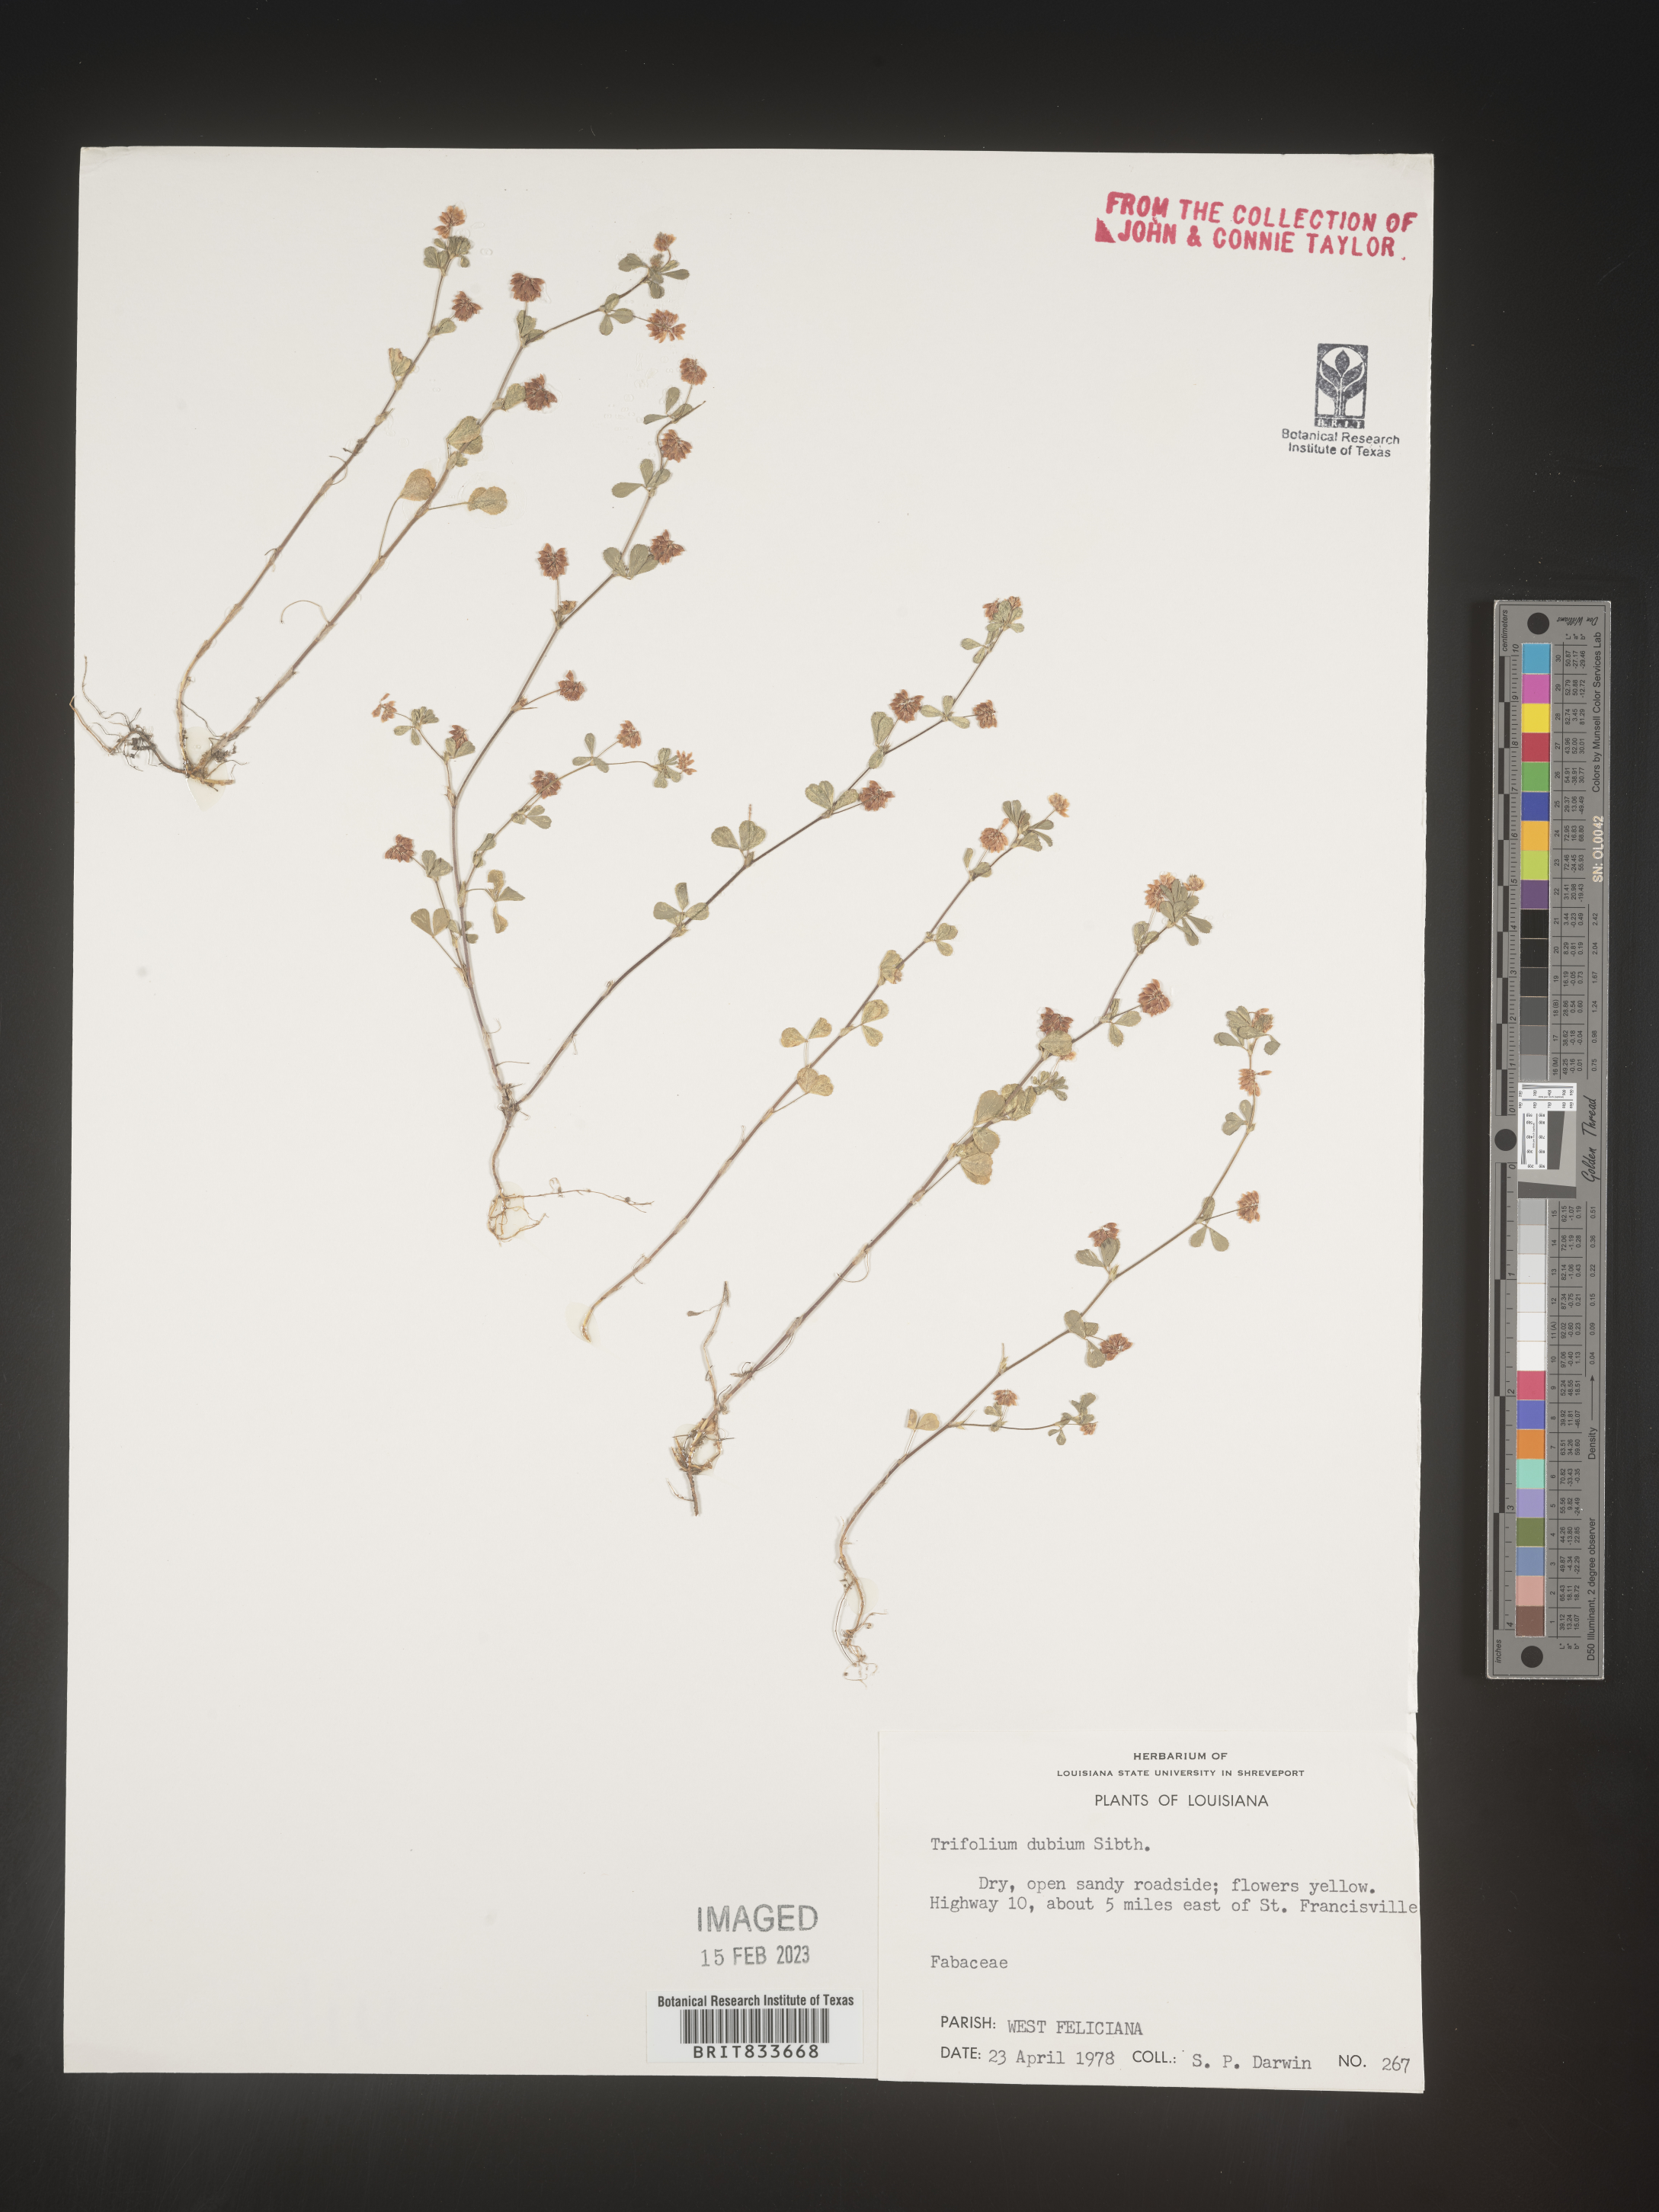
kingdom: Plantae
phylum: Tracheophyta
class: Magnoliopsida
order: Fabales
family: Fabaceae
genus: Trifolium
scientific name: Trifolium dubium
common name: Suckling clover
